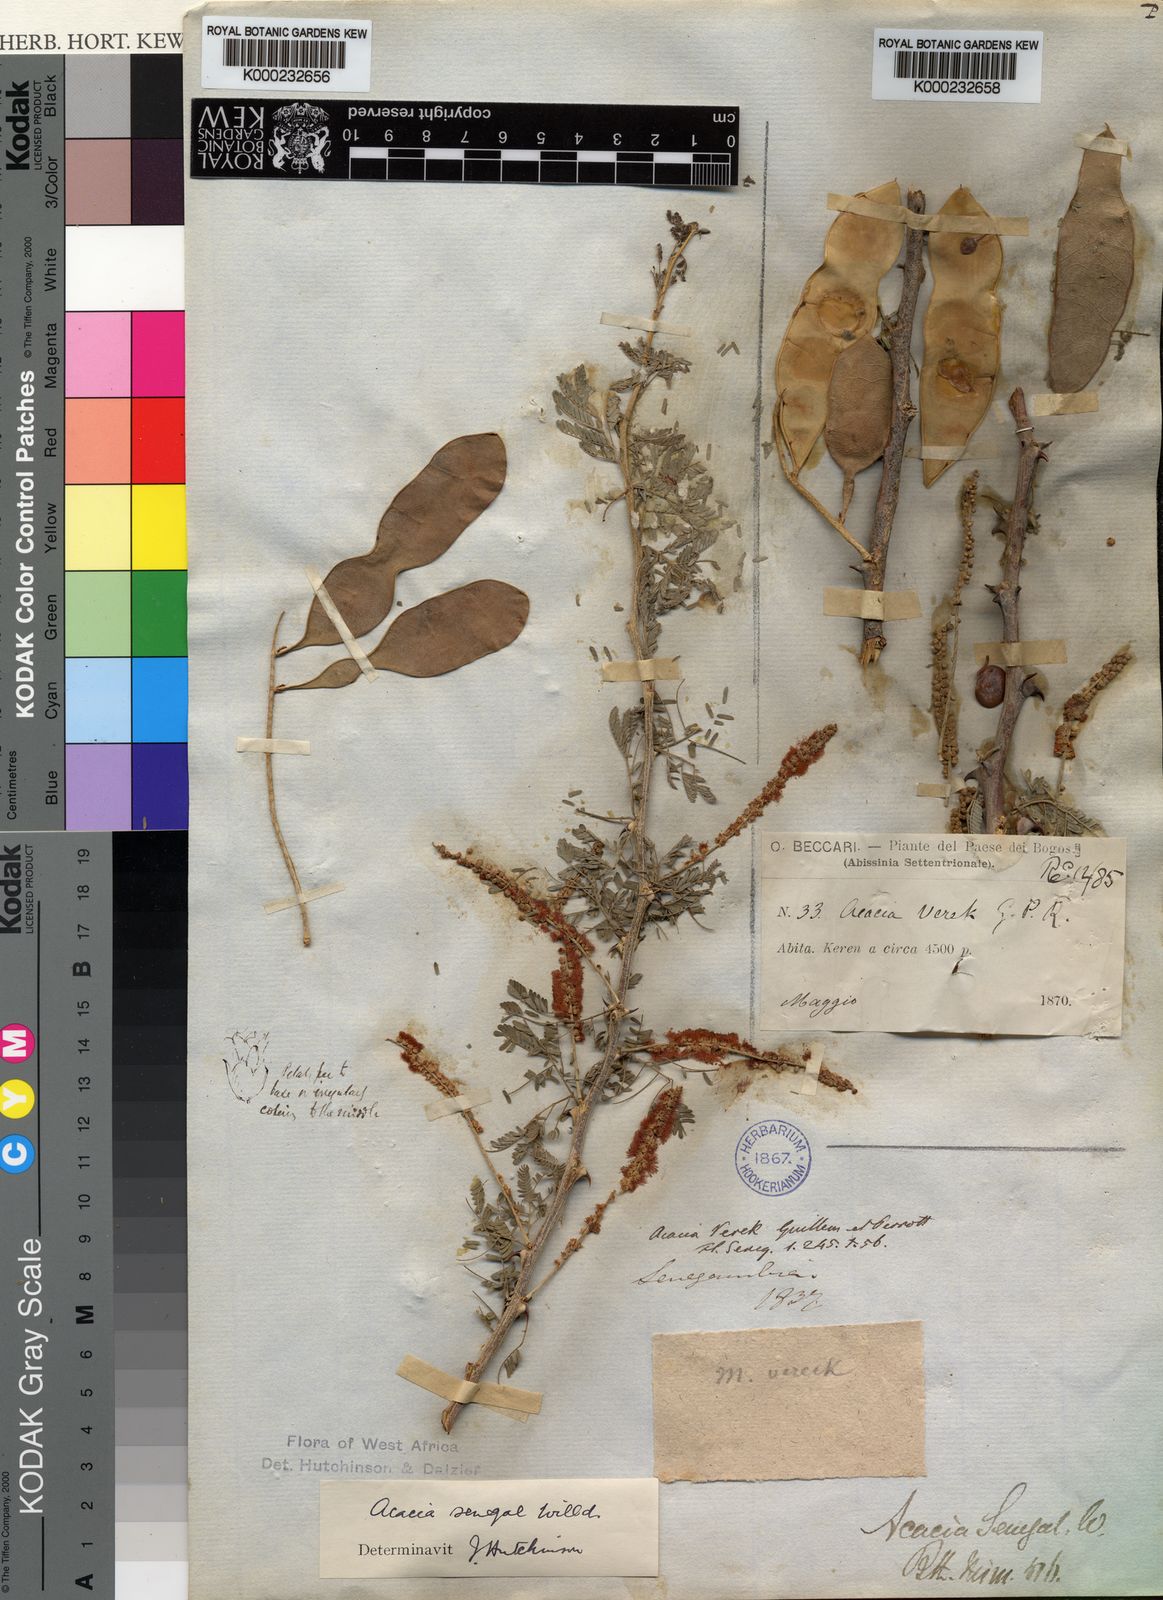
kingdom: Plantae
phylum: Tracheophyta
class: Magnoliopsida
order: Fabales
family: Fabaceae
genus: Senegalia
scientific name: Senegalia senegal
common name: Senegal-gum
